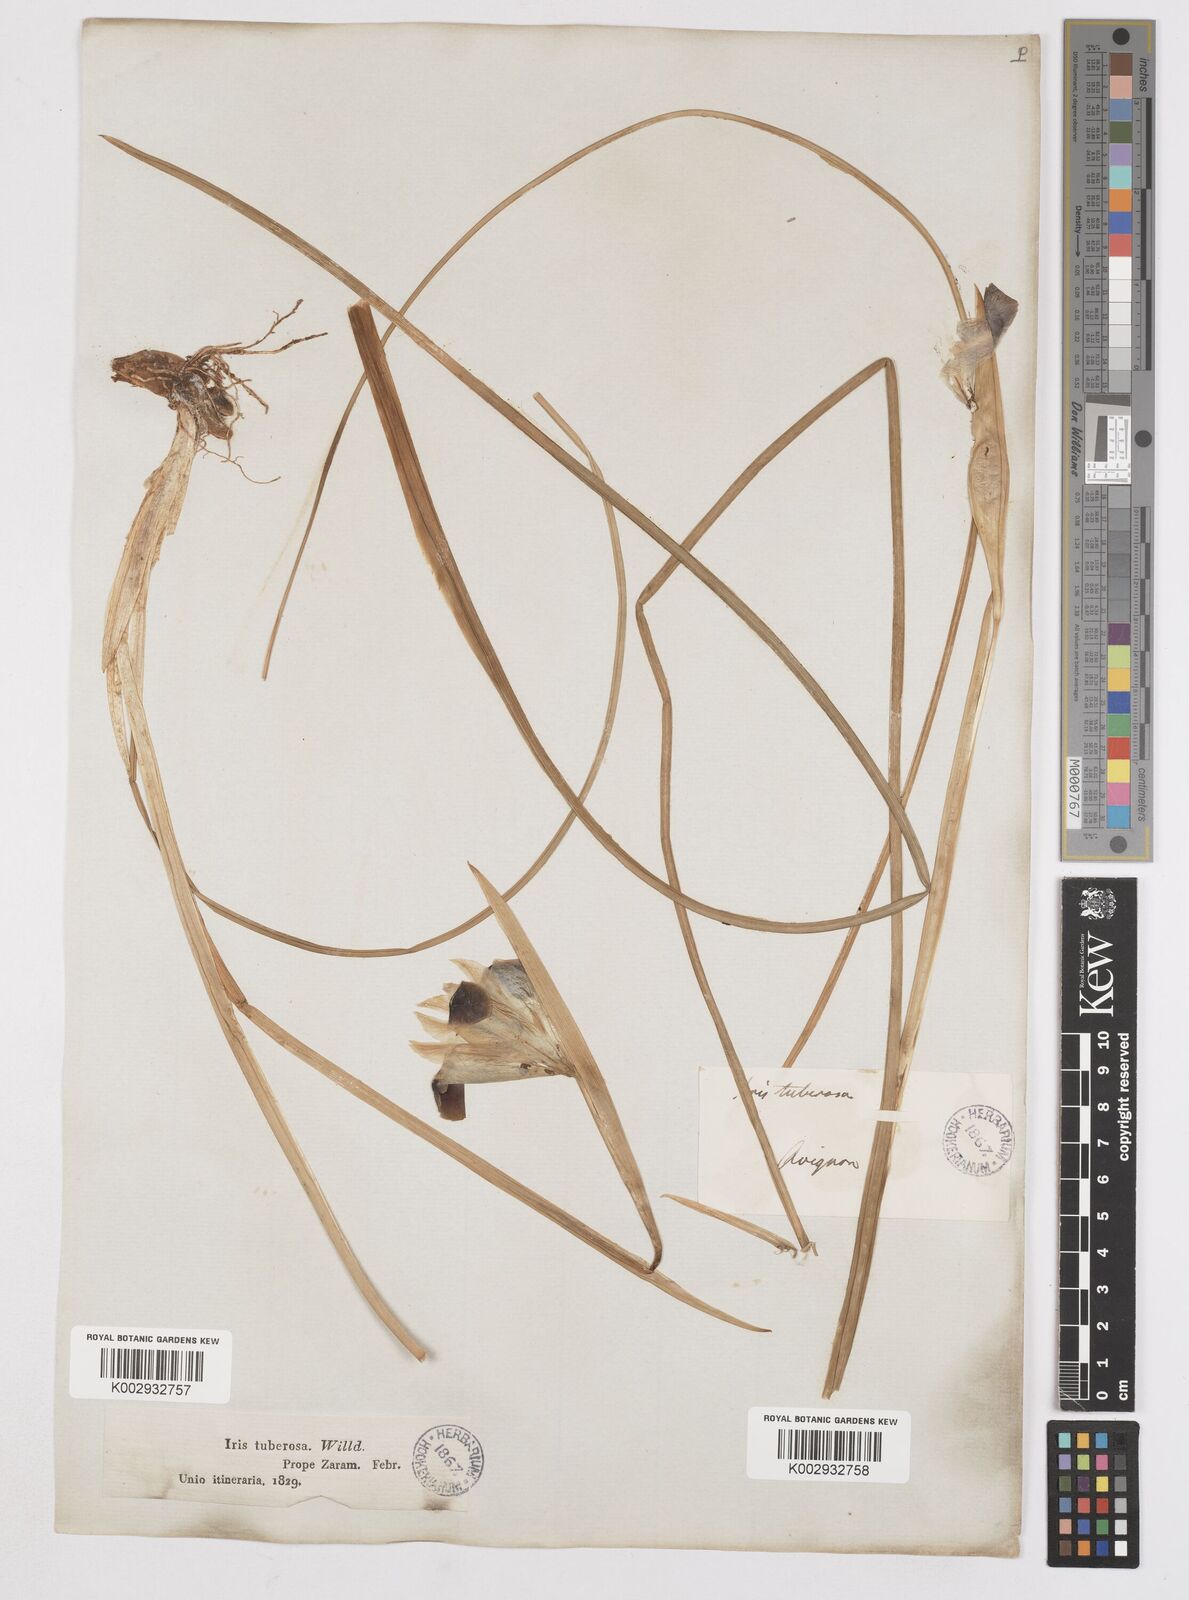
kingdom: Plantae
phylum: Tracheophyta
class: Liliopsida
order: Asparagales
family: Iridaceae
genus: Iris
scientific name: Iris tuberosa
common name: Snake's-head iris
